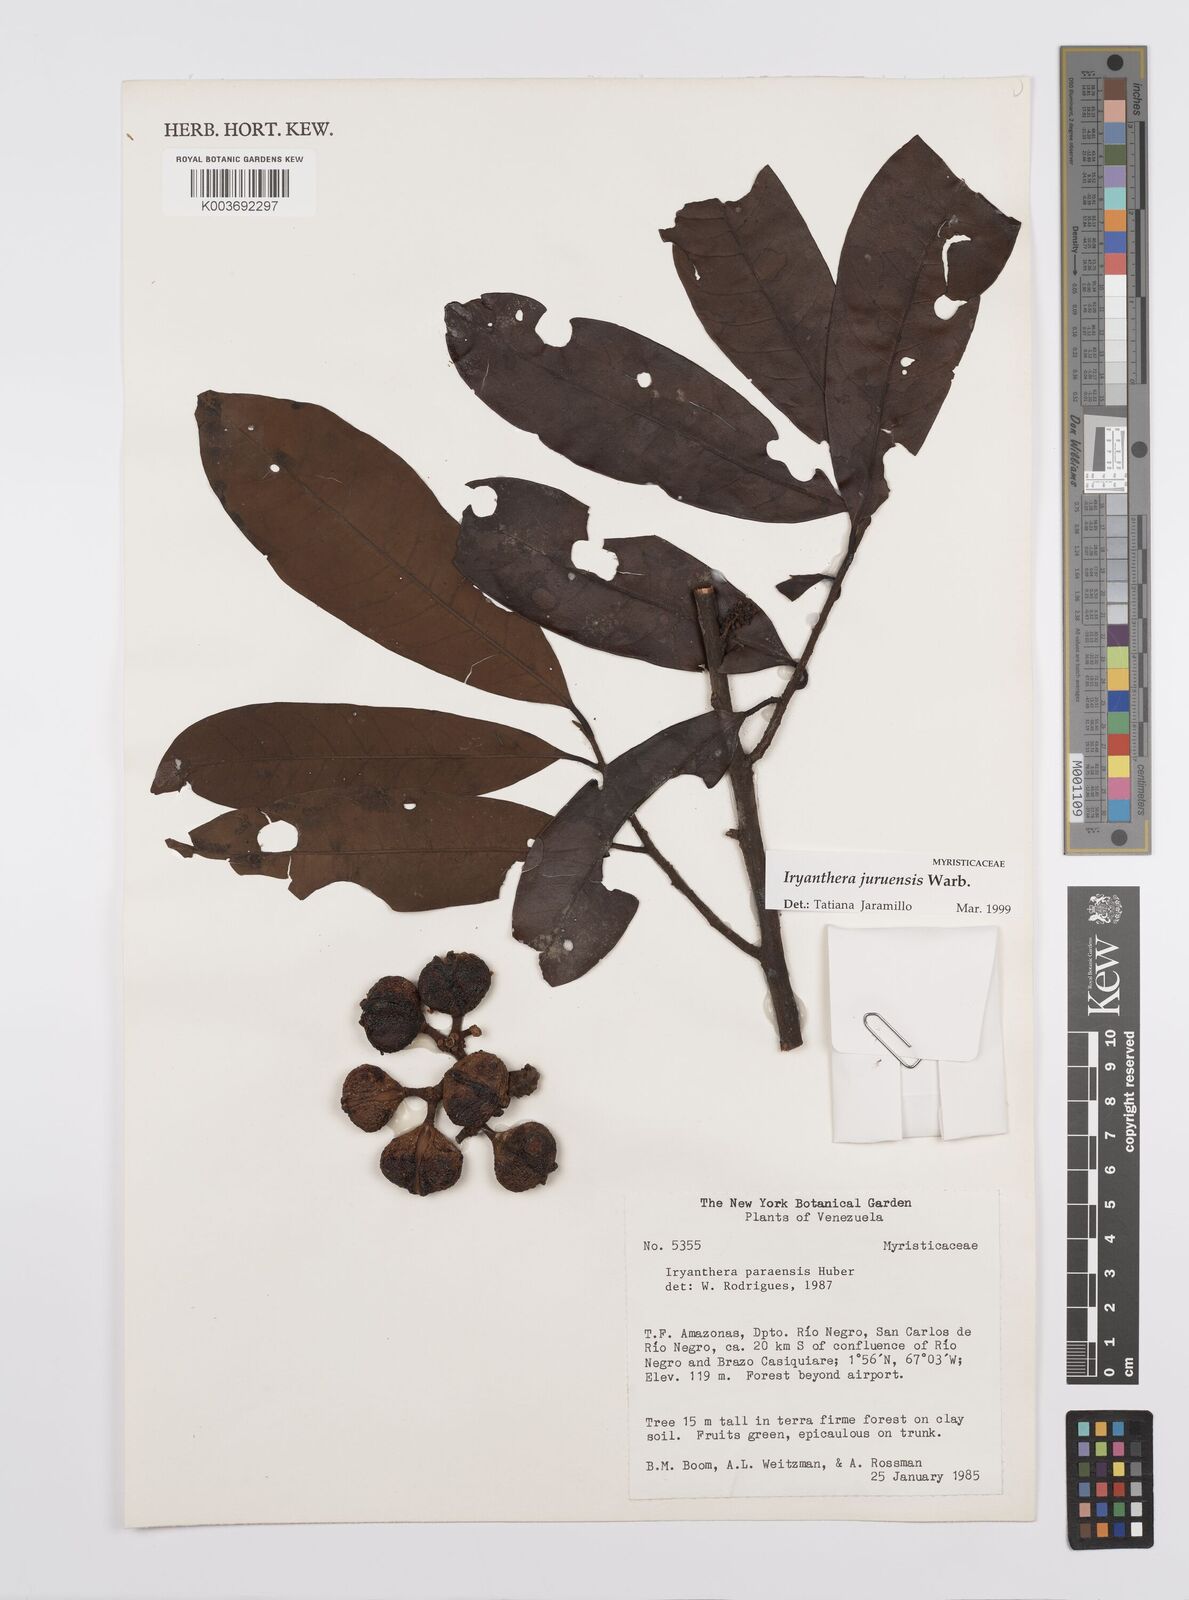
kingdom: Plantae
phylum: Tracheophyta
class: Magnoliopsida
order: Magnoliales
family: Myristicaceae
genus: Iryanthera
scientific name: Iryanthera juruensis
